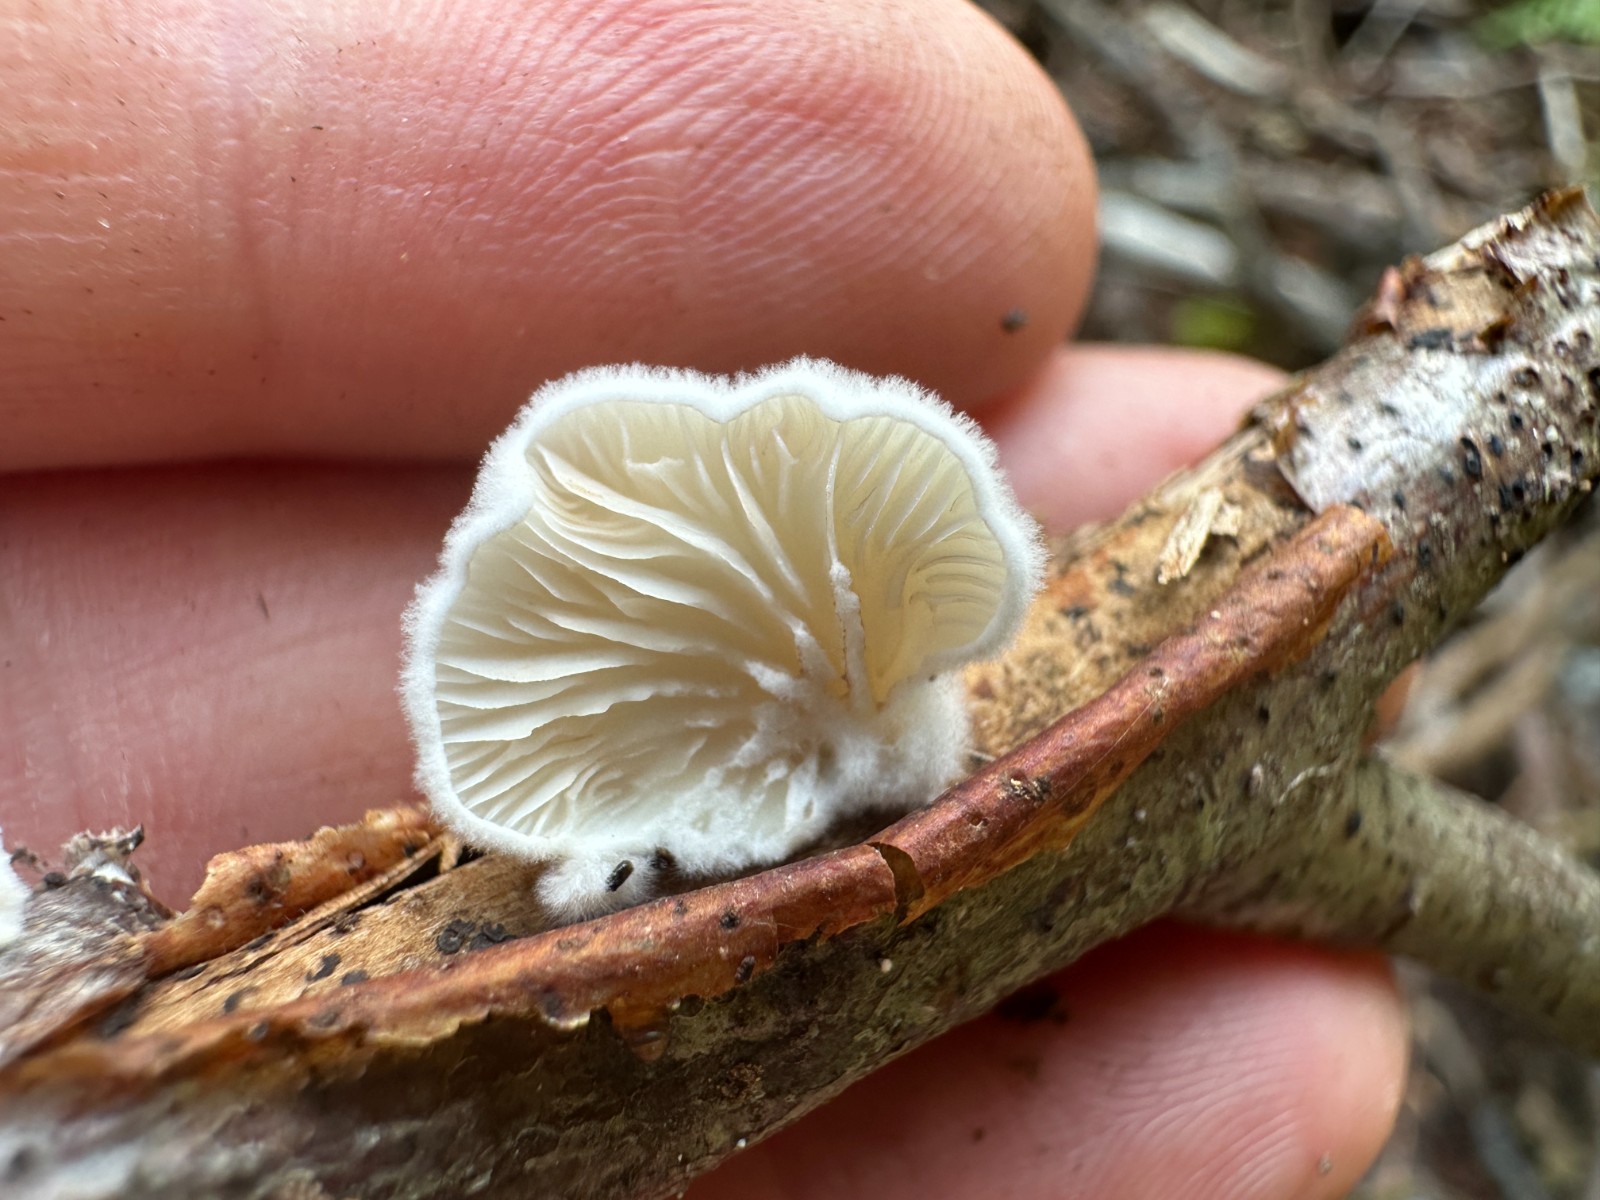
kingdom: Fungi
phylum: Basidiomycota
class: Agaricomycetes
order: Agaricales
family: Crepidotaceae
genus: Crepidotus
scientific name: Crepidotus
